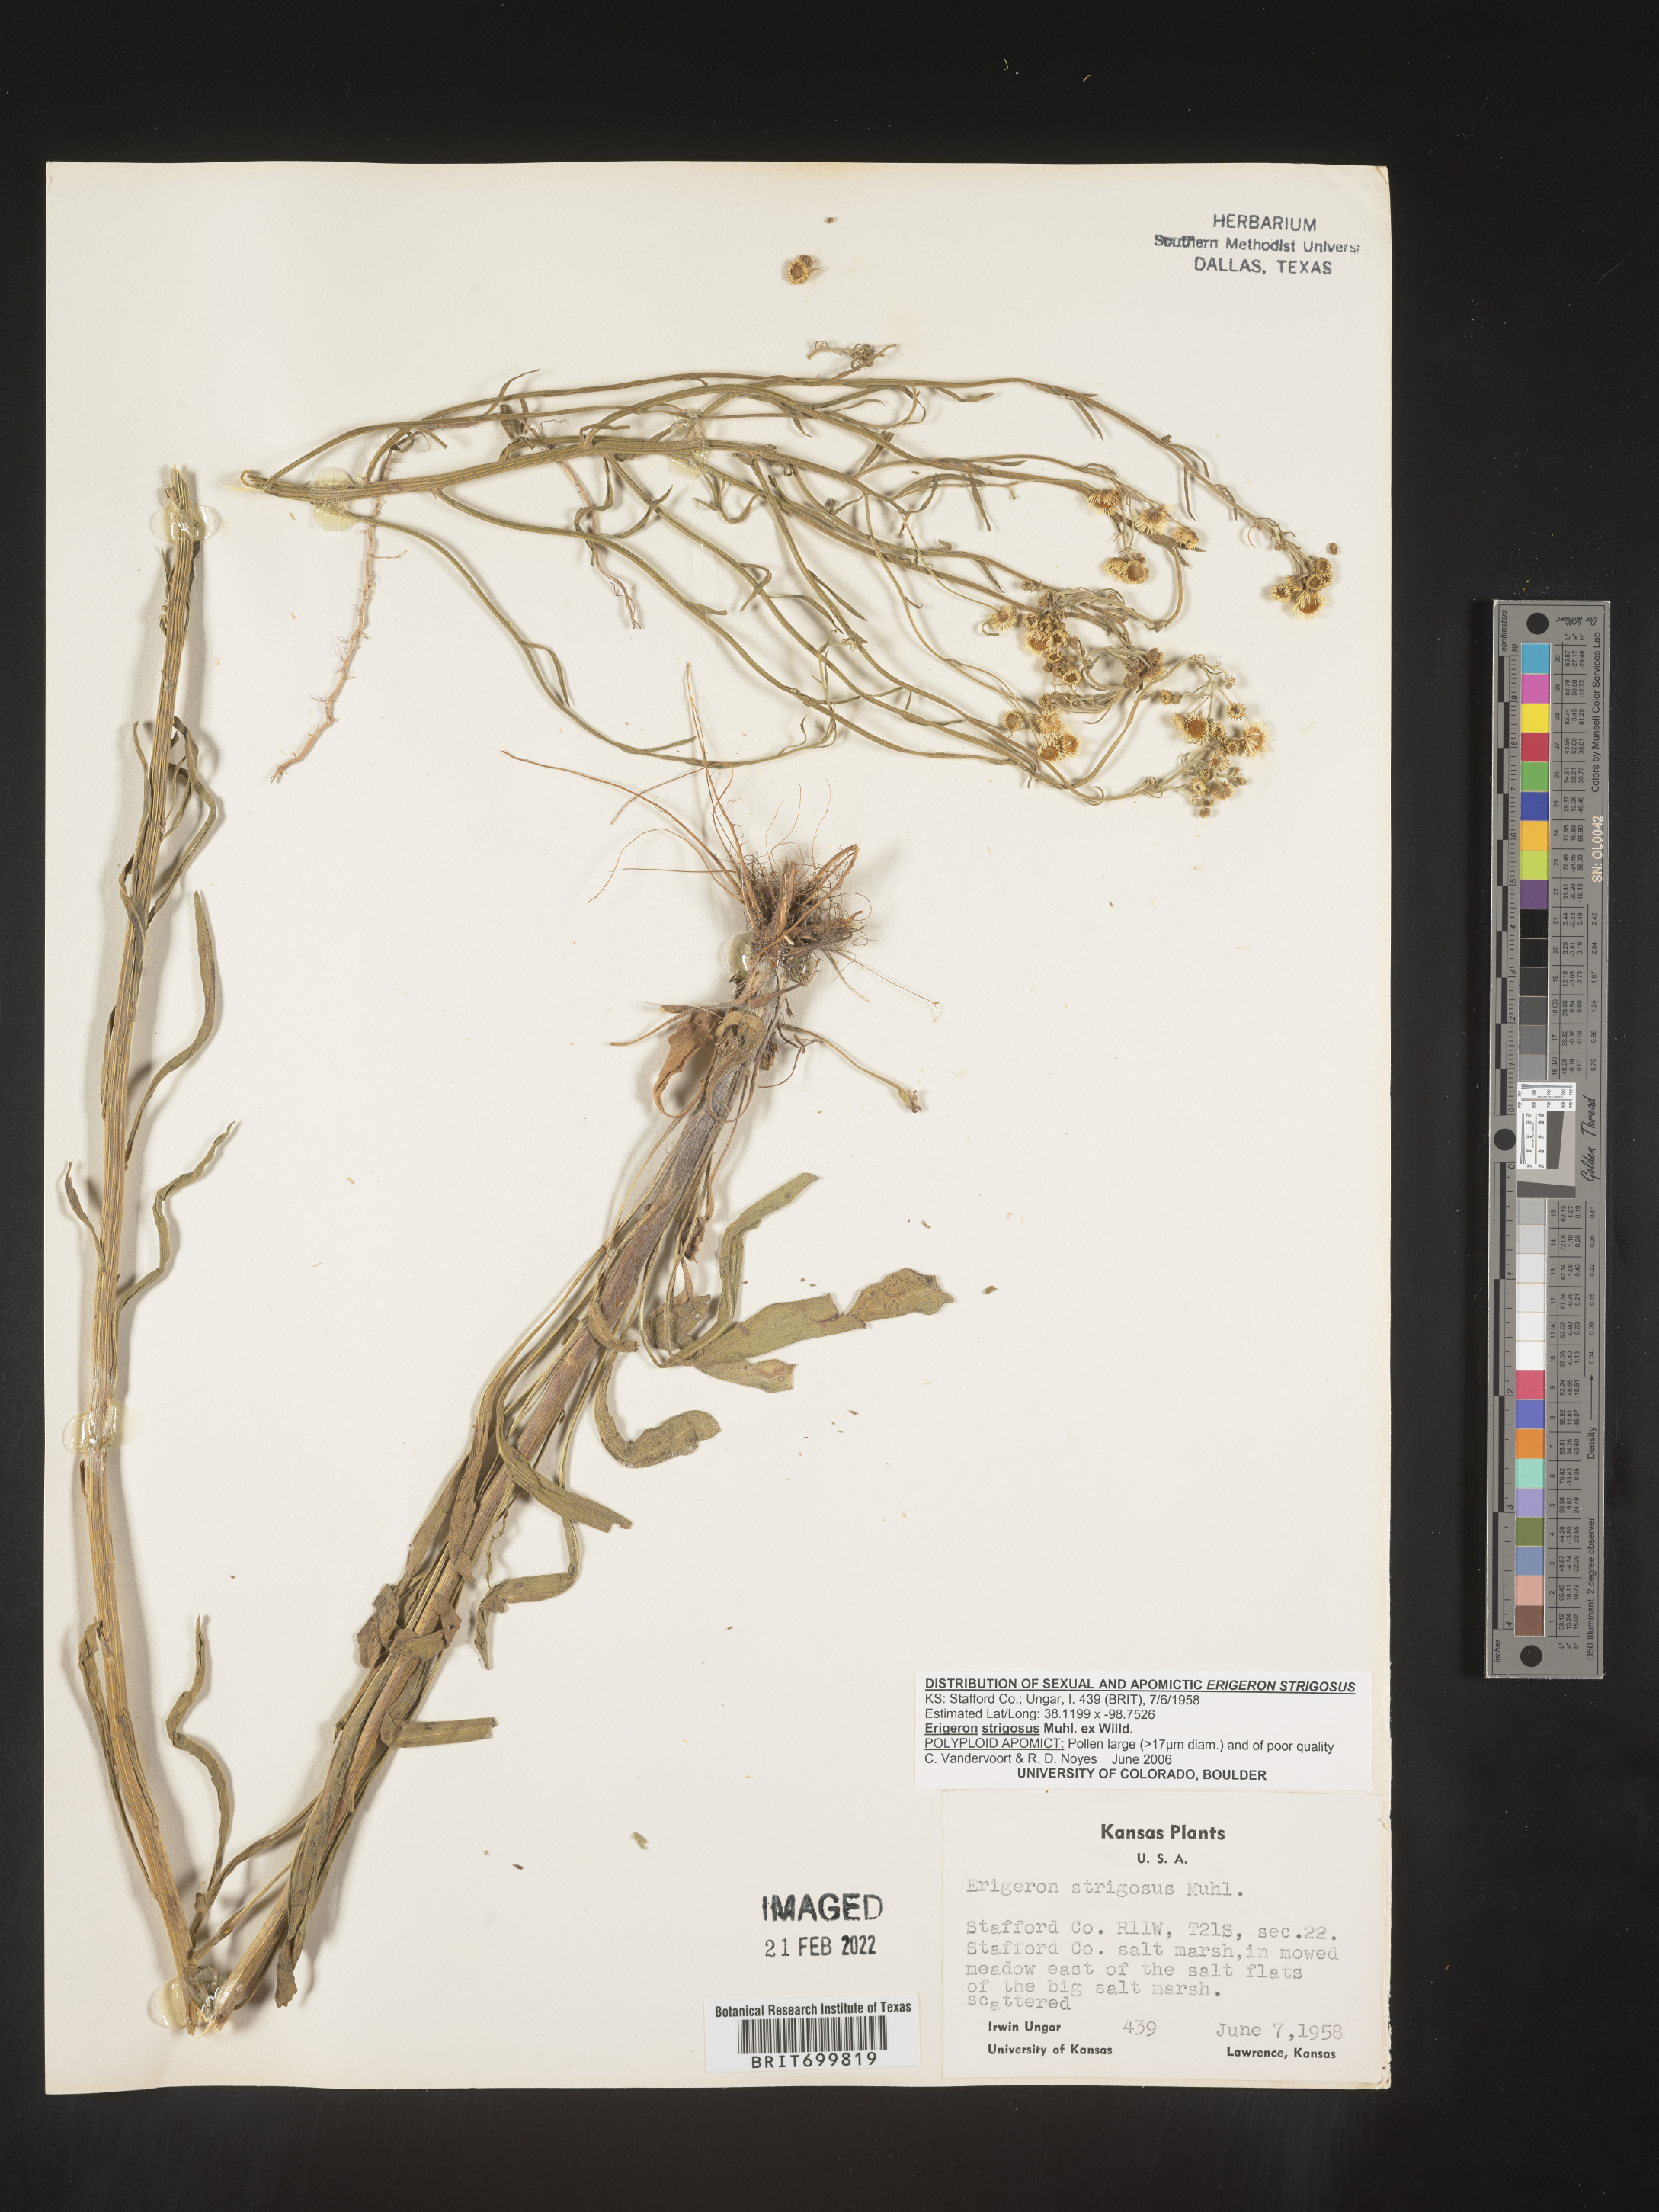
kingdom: Plantae
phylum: Tracheophyta
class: Magnoliopsida
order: Asterales
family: Asteraceae
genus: Erigeron
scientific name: Erigeron strigosus
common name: Common eastern fleabane
